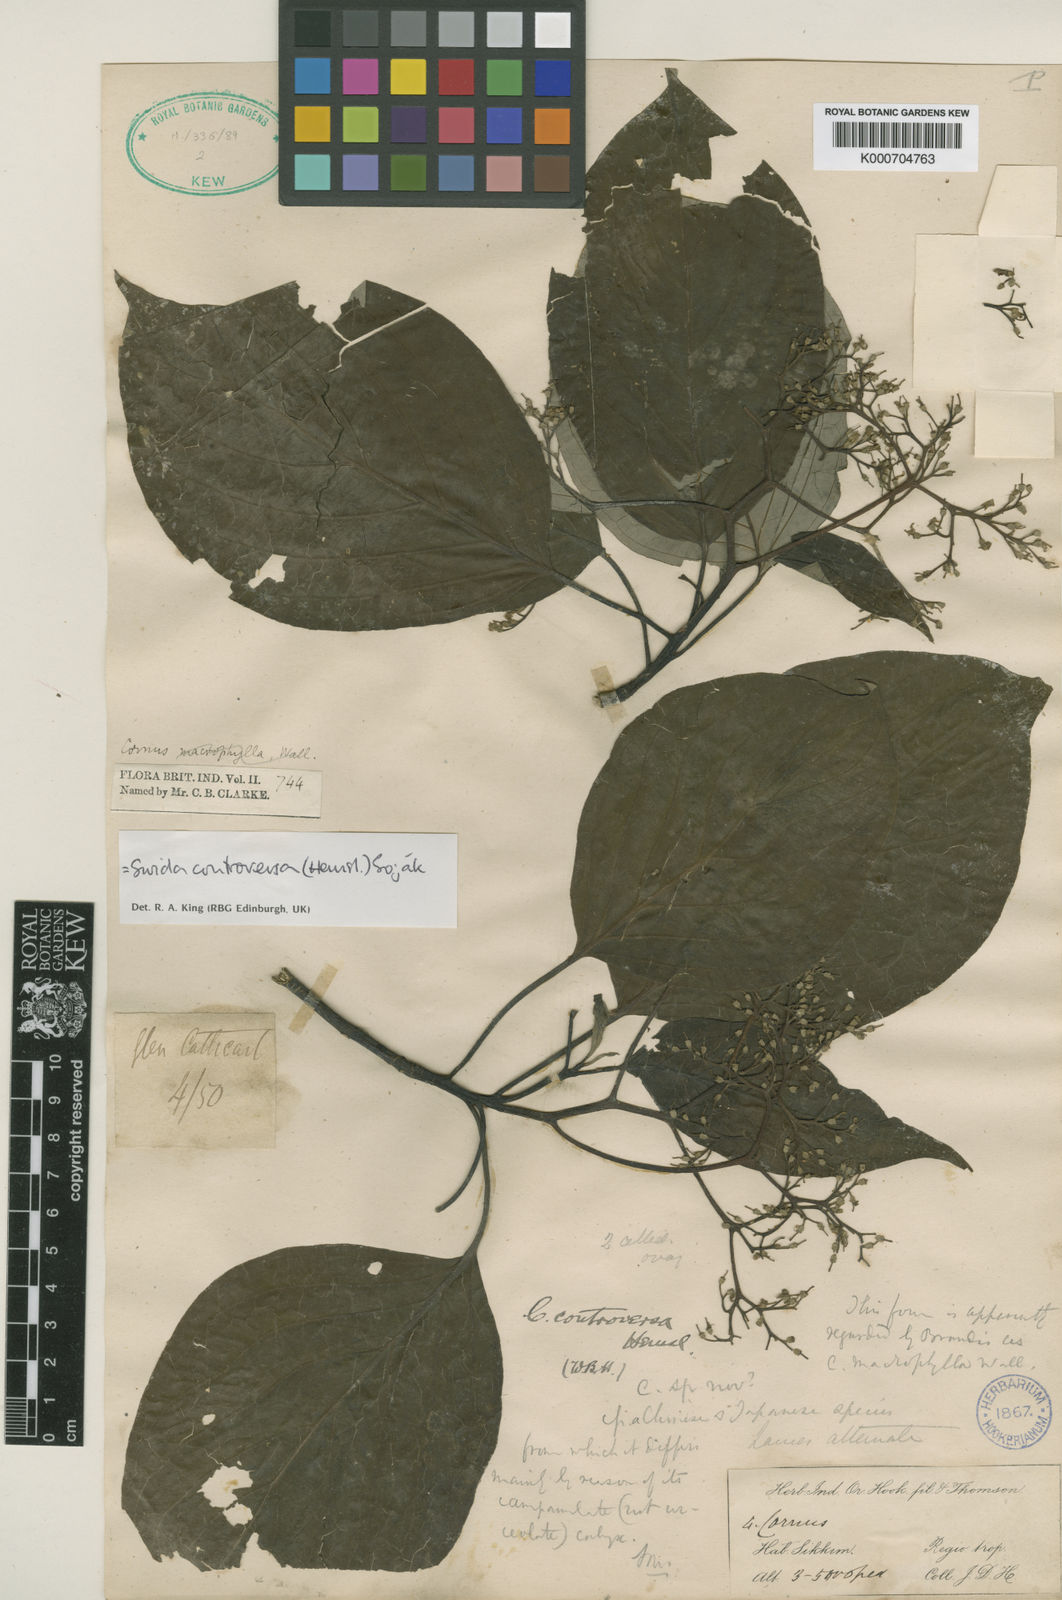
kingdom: Plantae
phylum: Tracheophyta
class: Magnoliopsida
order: Cornales
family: Cornaceae
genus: Cornus
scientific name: Cornus controversa
